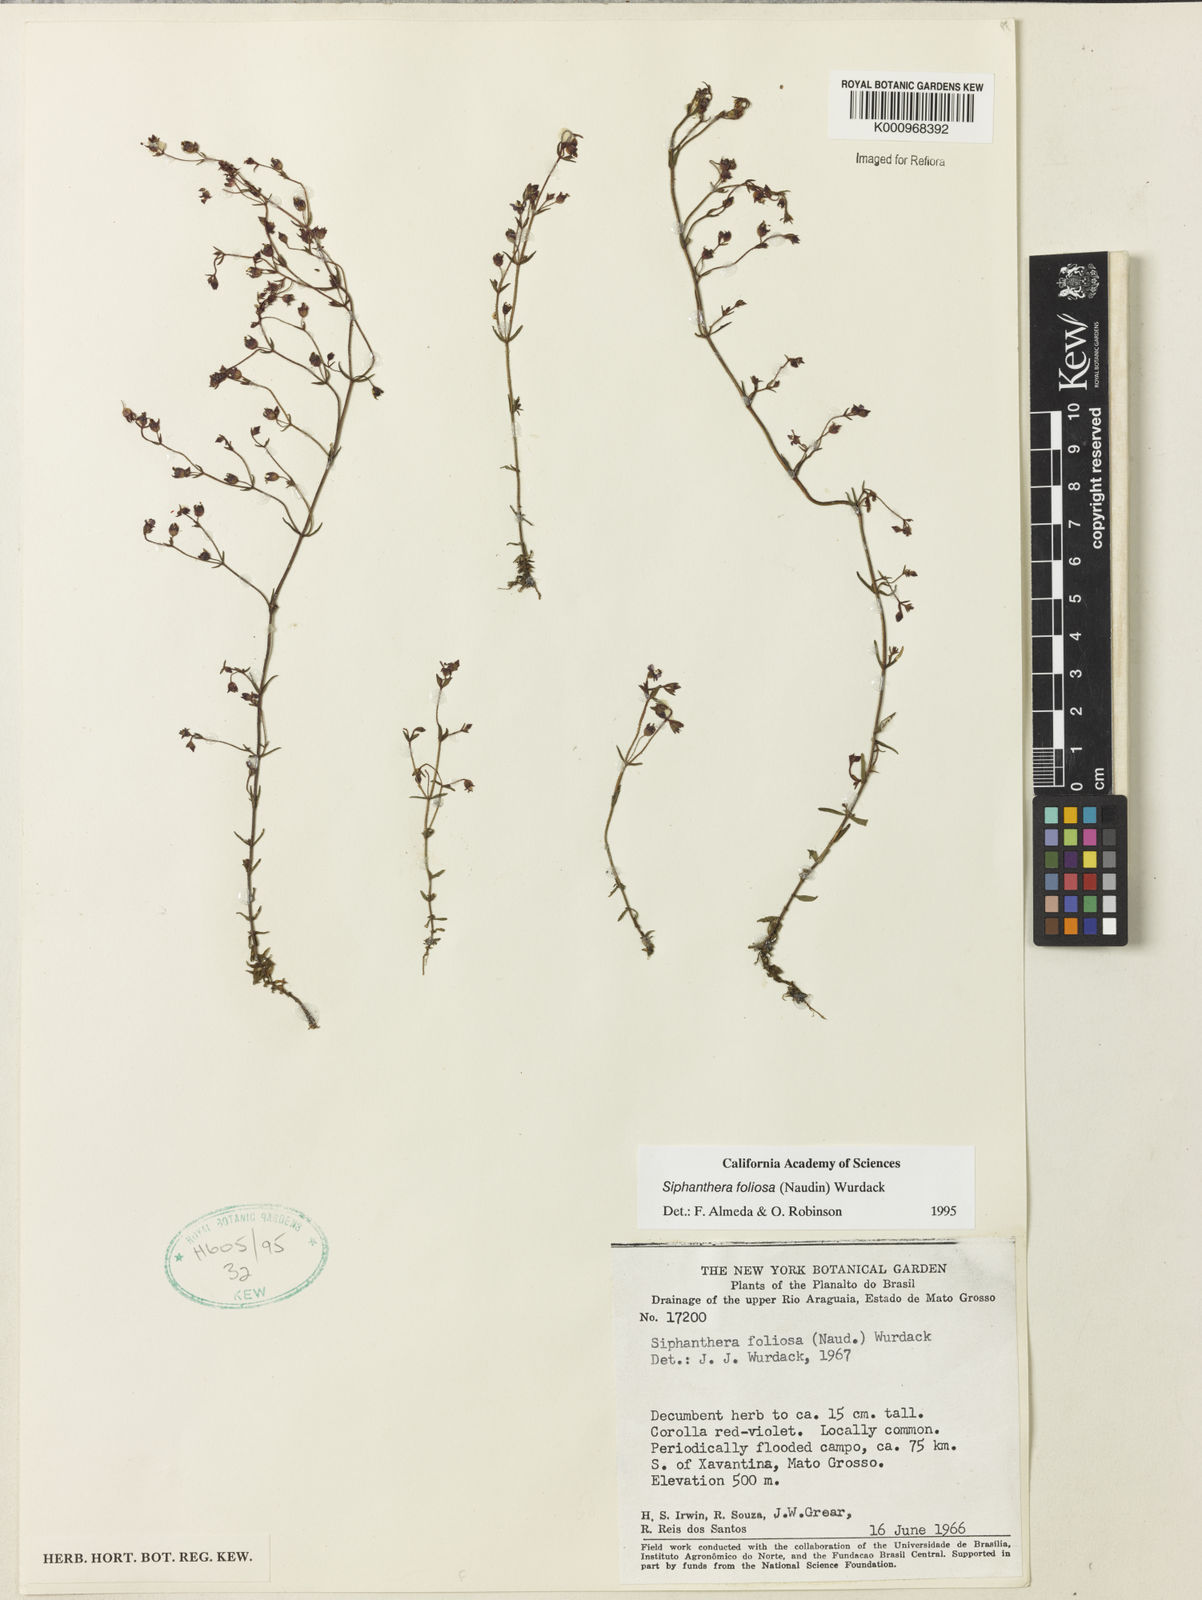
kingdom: Plantae
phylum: Tracheophyta
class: Magnoliopsida
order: Myrtales
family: Melastomataceae
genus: Siphanthera
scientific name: Siphanthera foliosa
